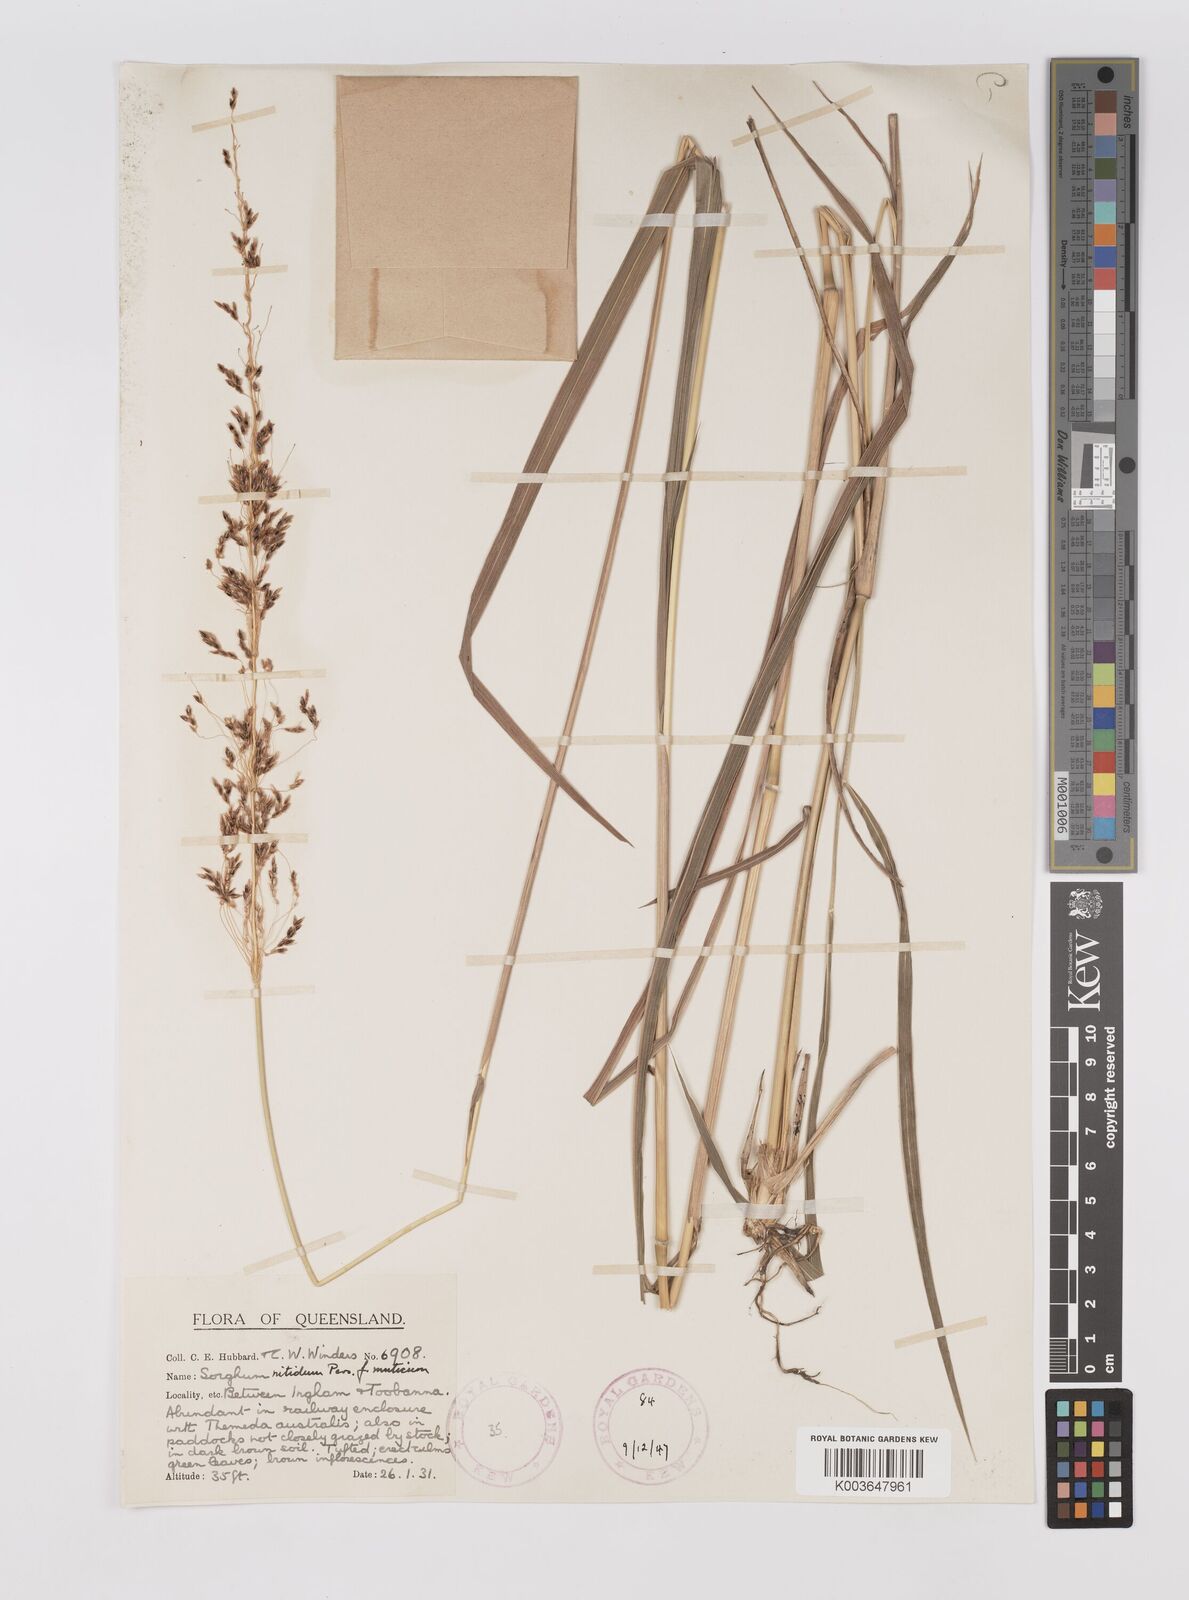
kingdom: Plantae
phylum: Tracheophyta
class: Liliopsida
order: Poales
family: Poaceae
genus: Sorghum
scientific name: Sorghum nitidum
